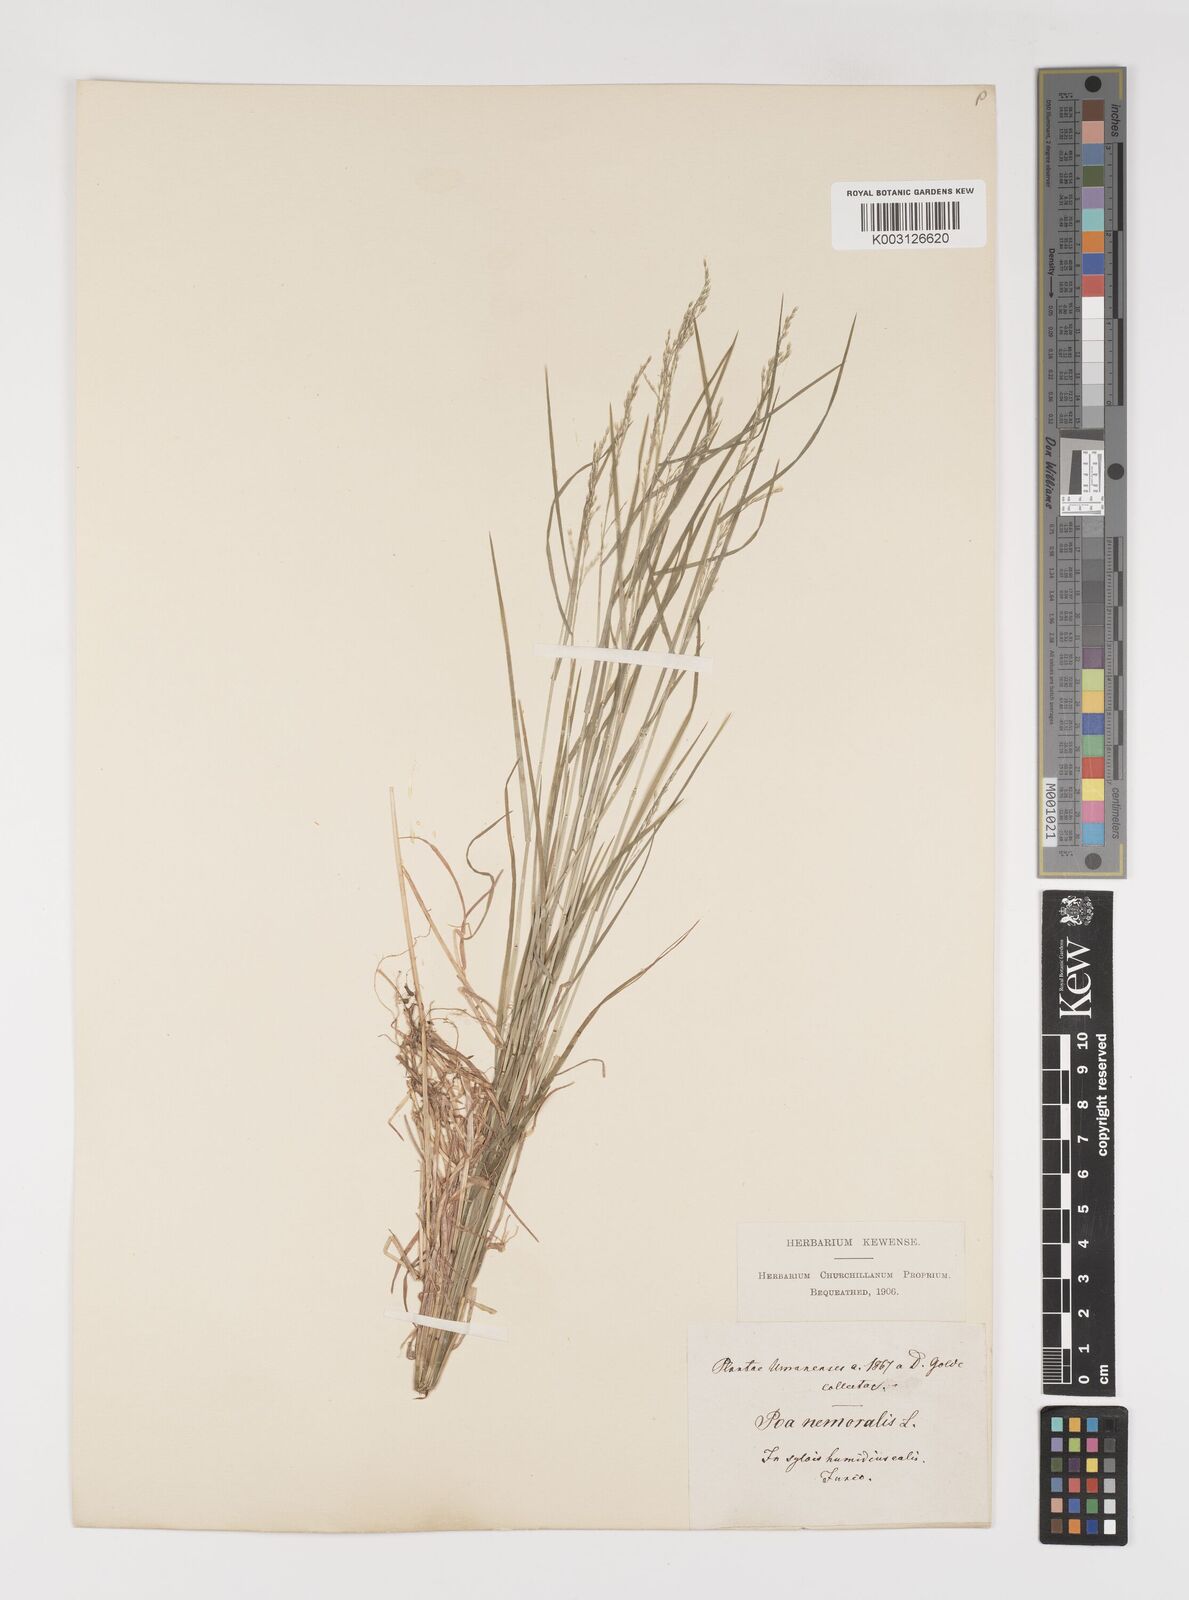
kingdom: Plantae
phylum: Tracheophyta
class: Liliopsida
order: Poales
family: Poaceae
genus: Poa
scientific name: Poa nemoralis
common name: Wood bluegrass
